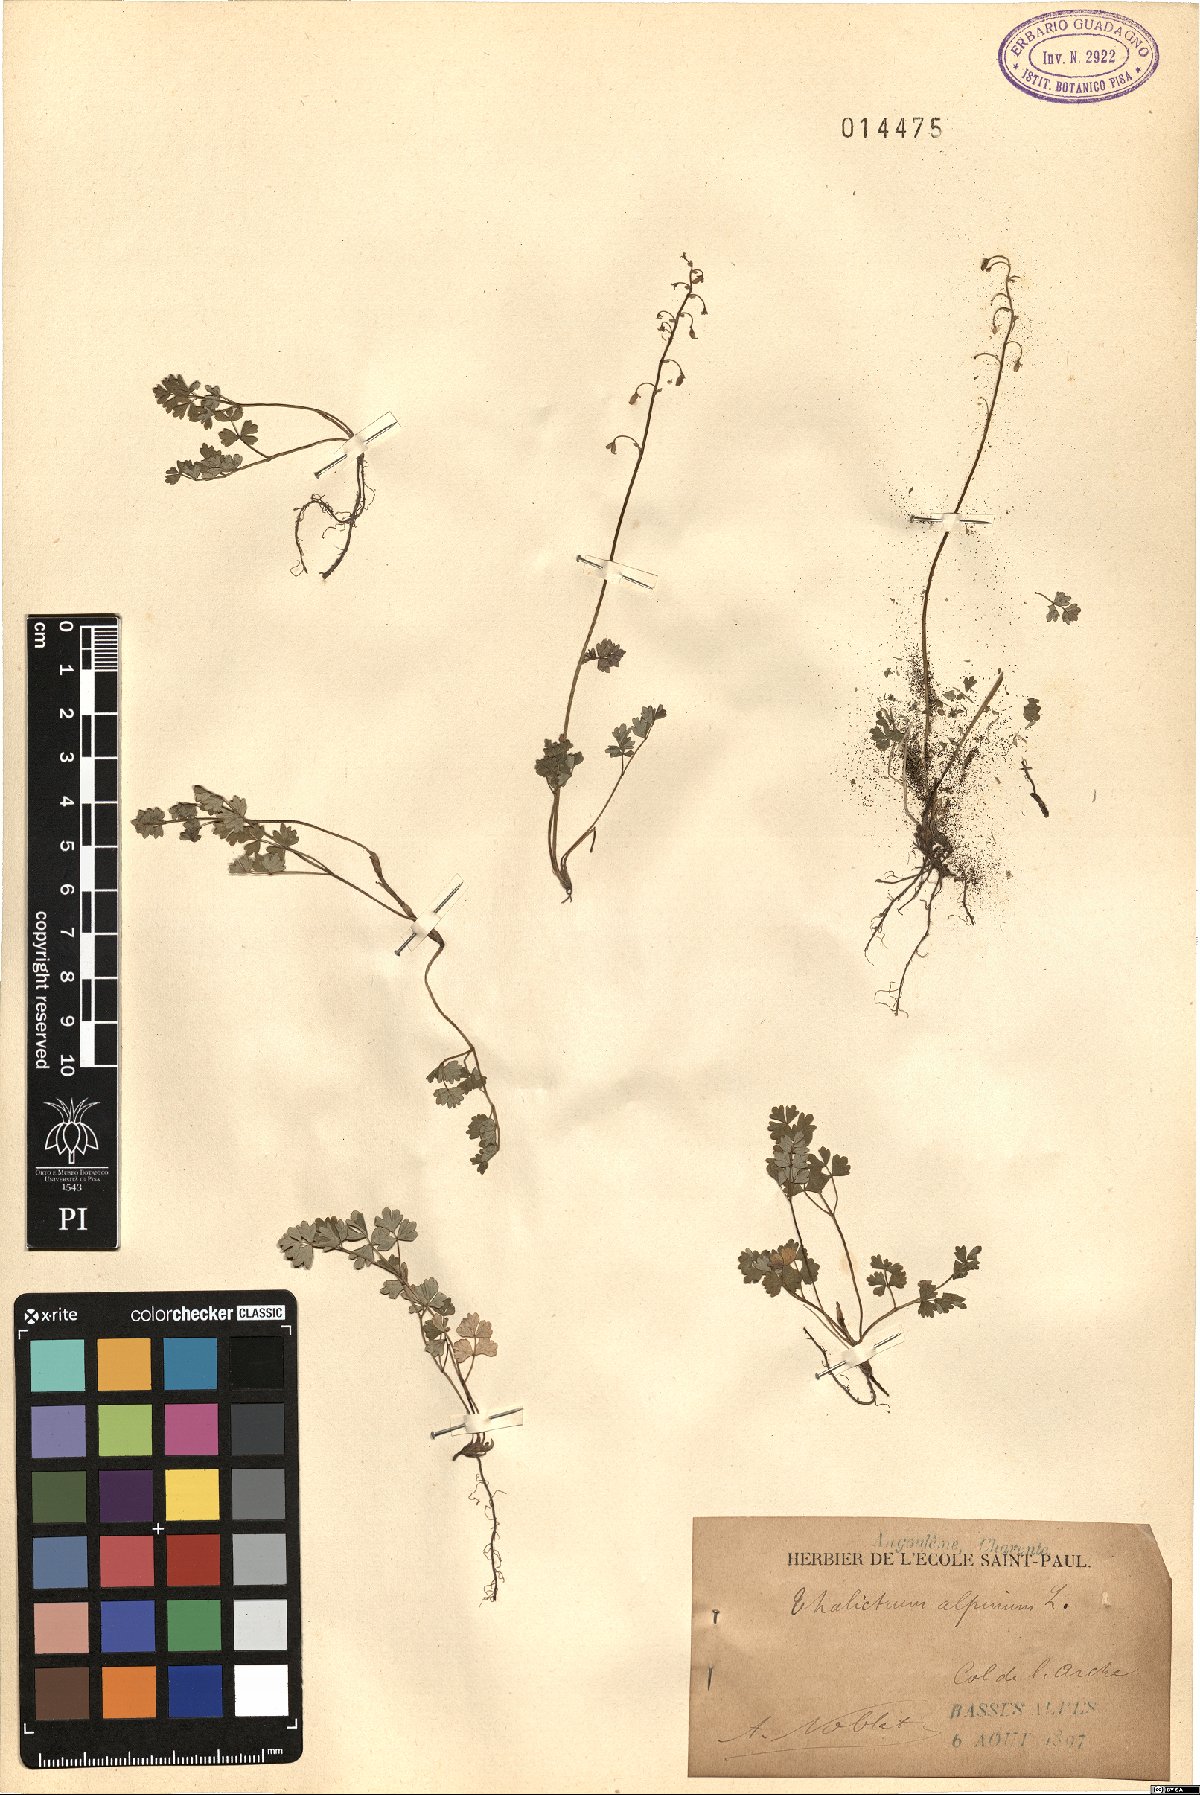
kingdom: Plantae
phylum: Tracheophyta
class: Magnoliopsida
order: Ranunculales
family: Ranunculaceae
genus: Thalictrum
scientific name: Thalictrum alpinum
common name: Alpine meadow-rue
